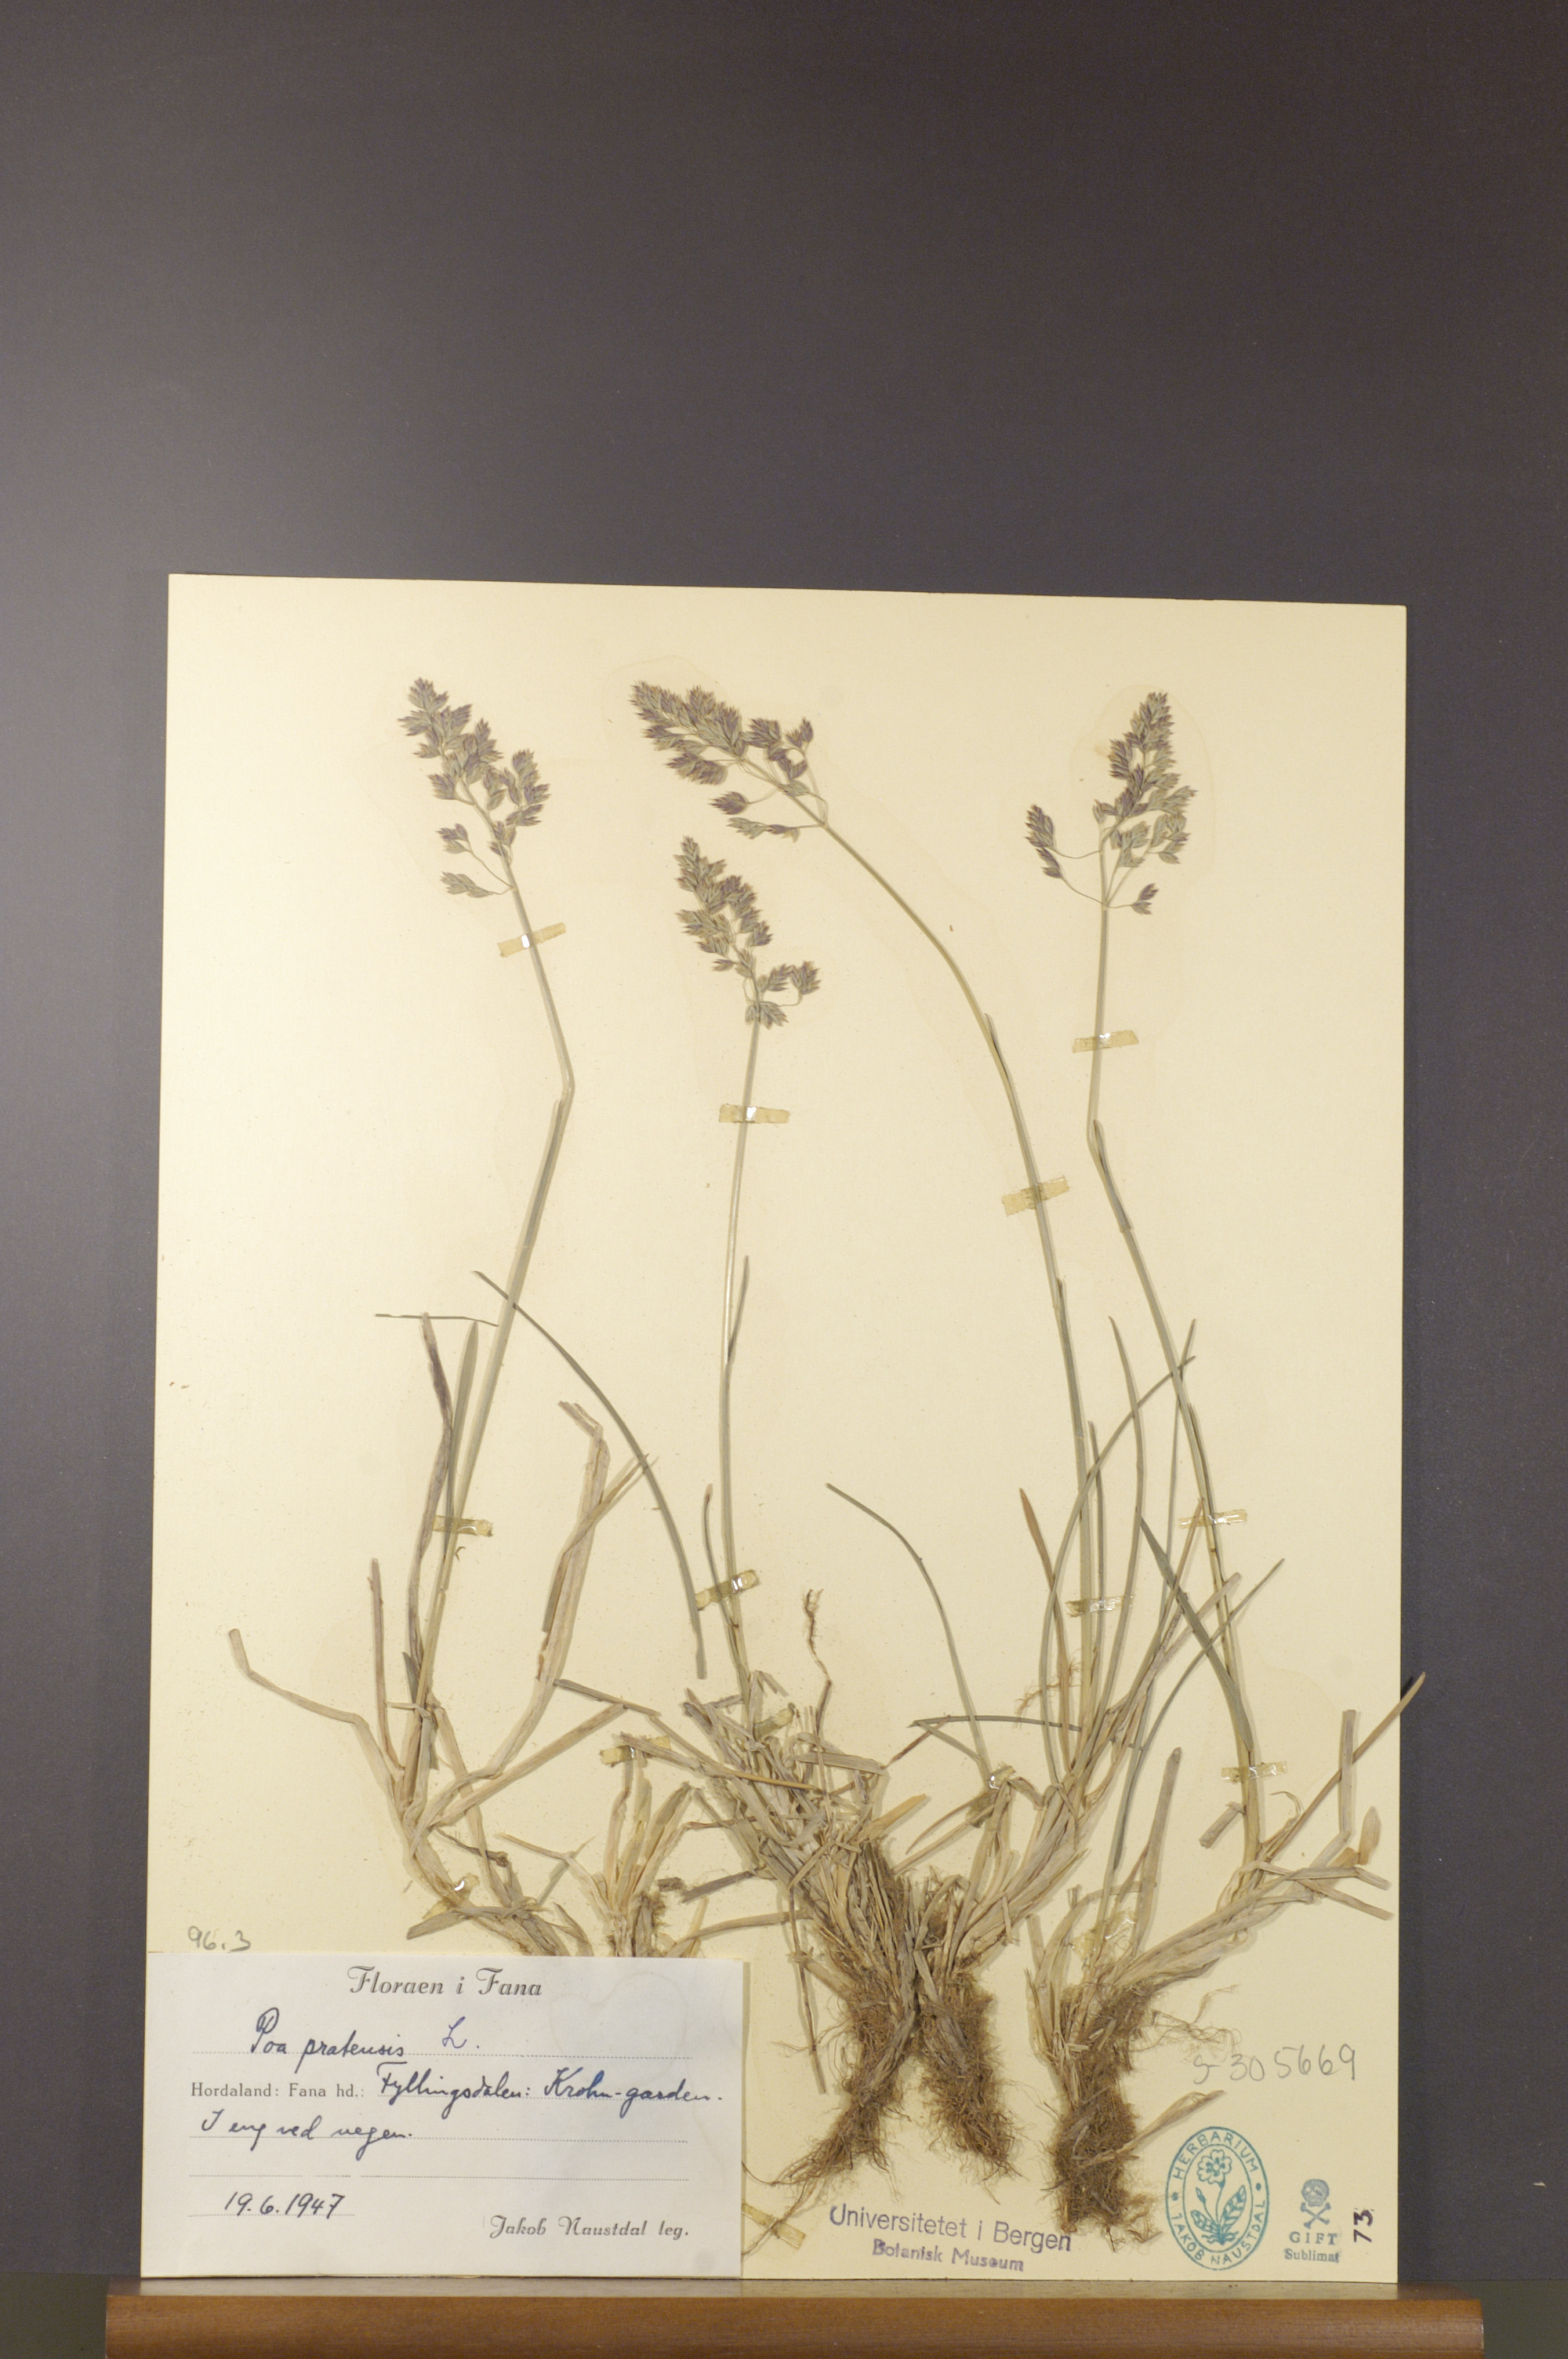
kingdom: Plantae
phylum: Tracheophyta
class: Liliopsida
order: Poales
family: Poaceae
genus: Poa
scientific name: Poa pratensis
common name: Kentucky bluegrass
